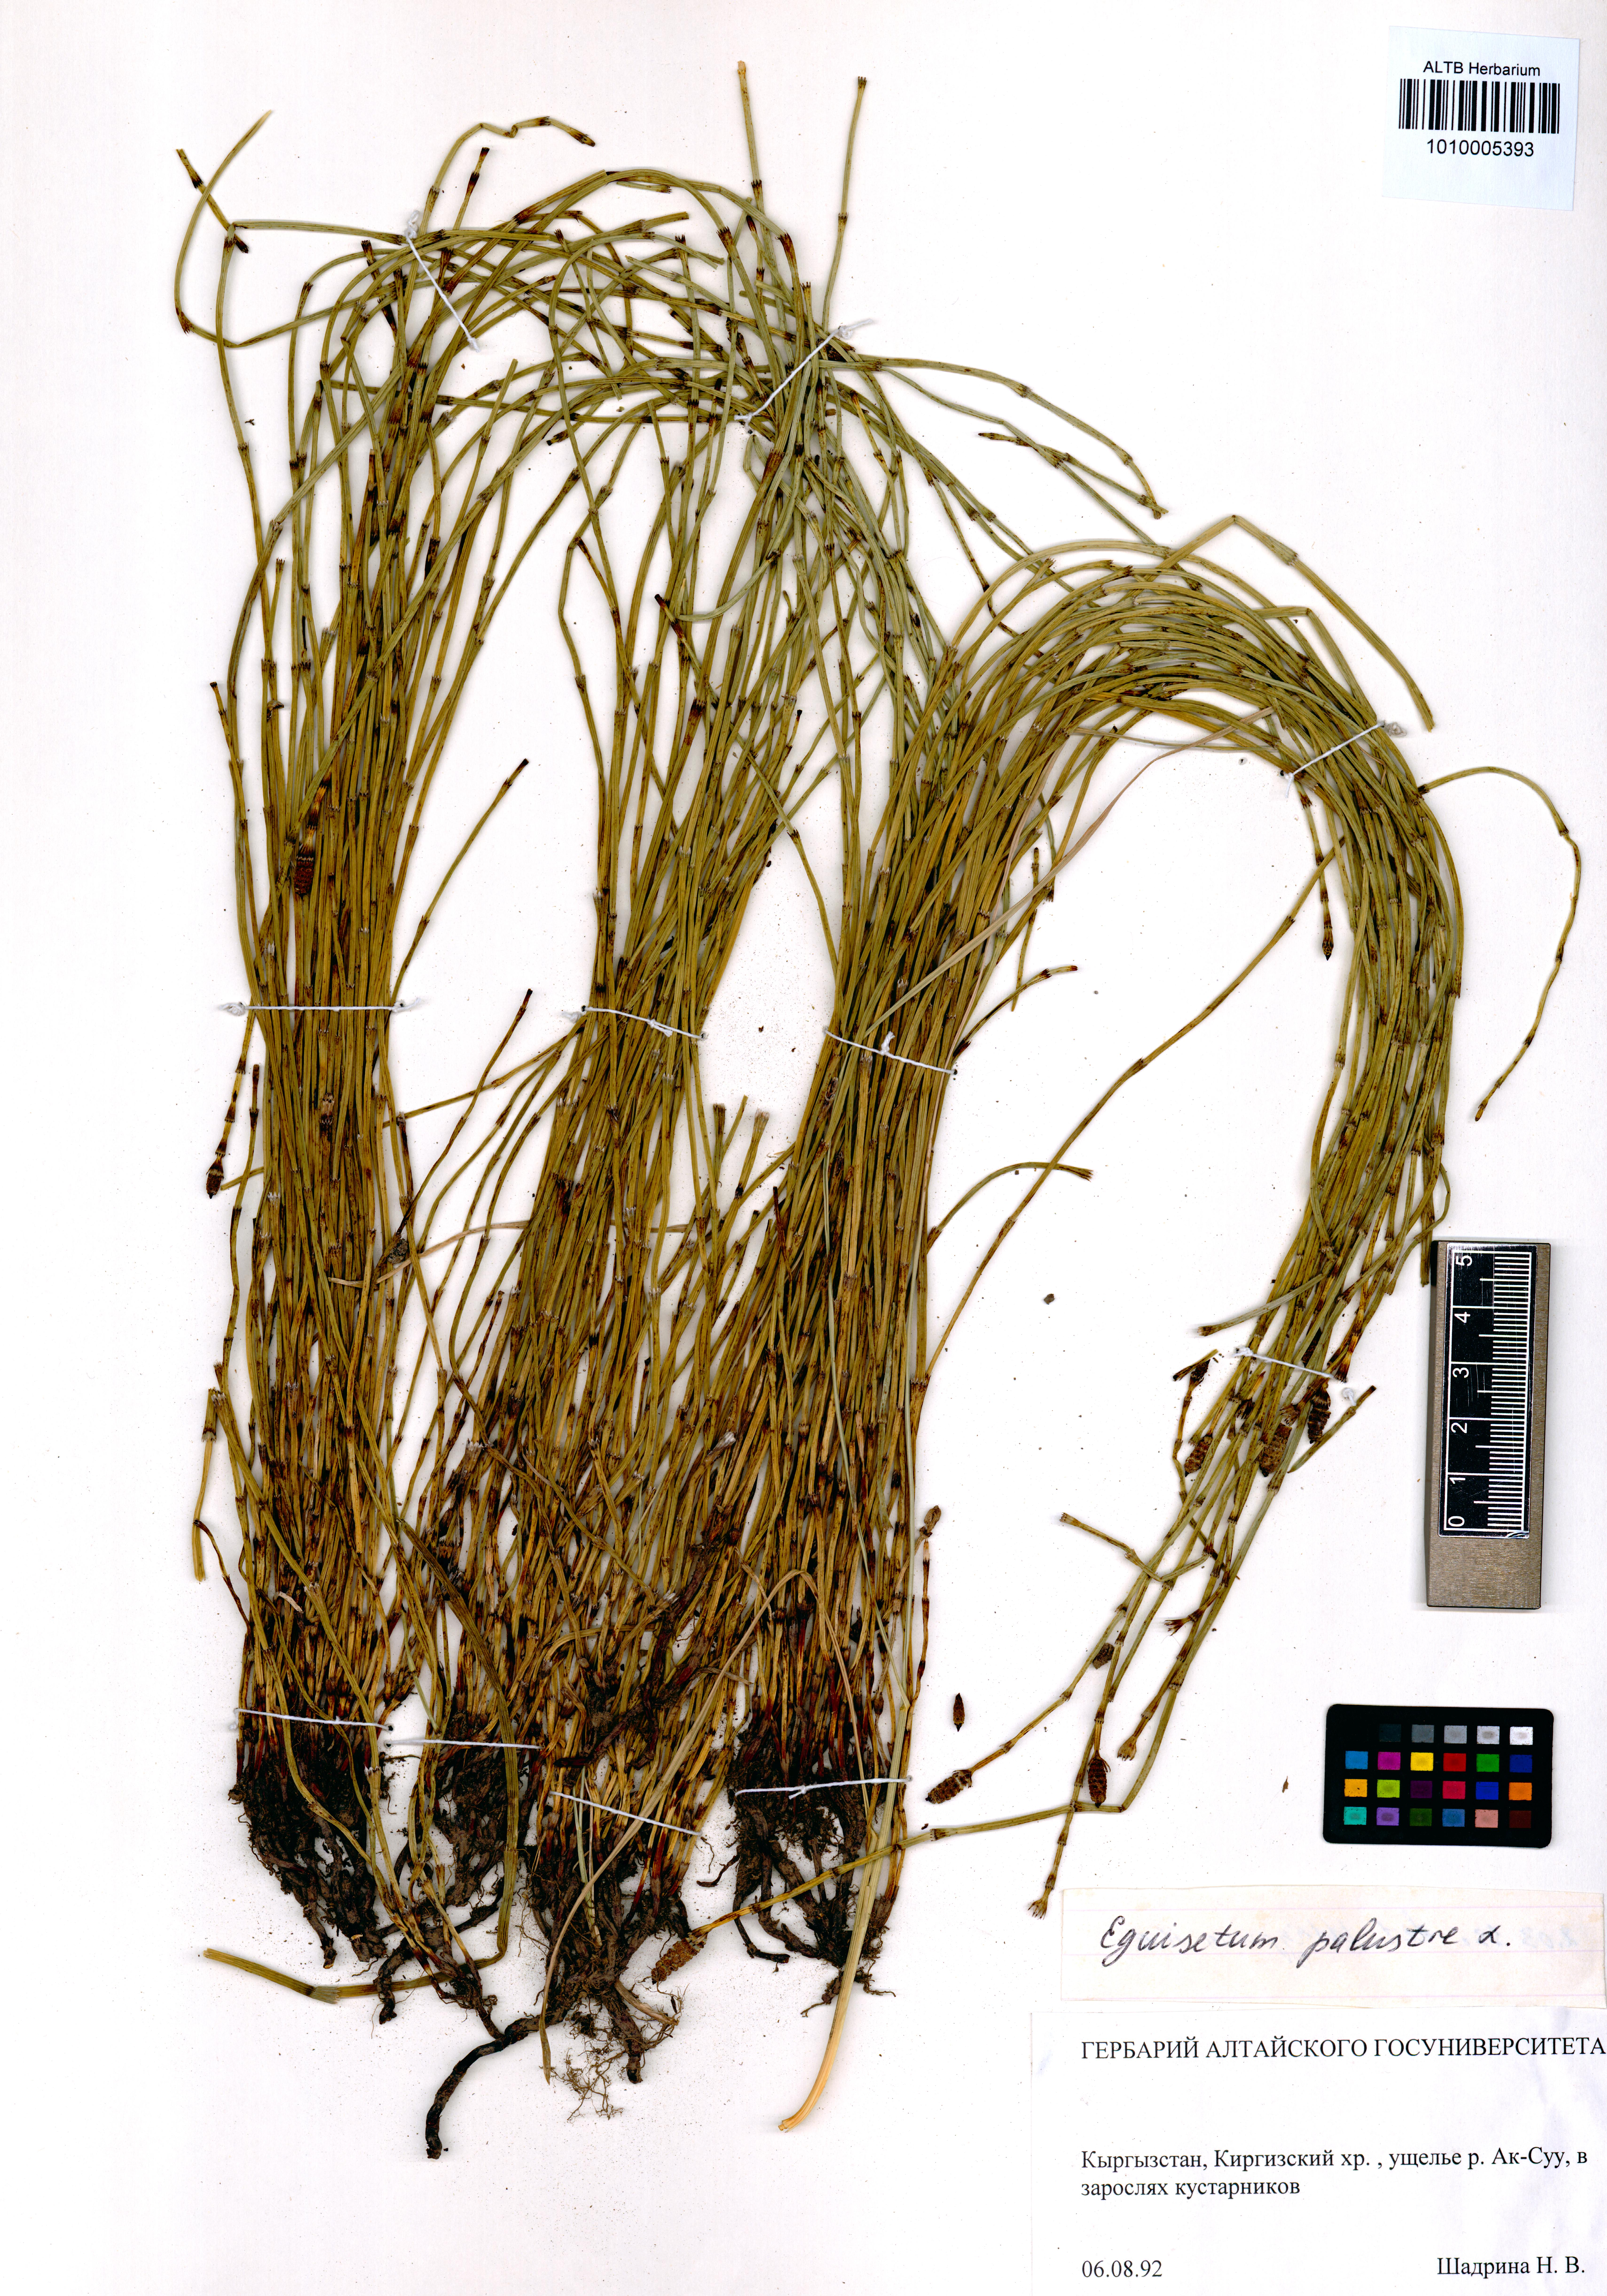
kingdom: Plantae
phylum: Tracheophyta
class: Polypodiopsida
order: Equisetales
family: Equisetaceae
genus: Equisetum
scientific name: Equisetum palustre
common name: Marsh horsetail
